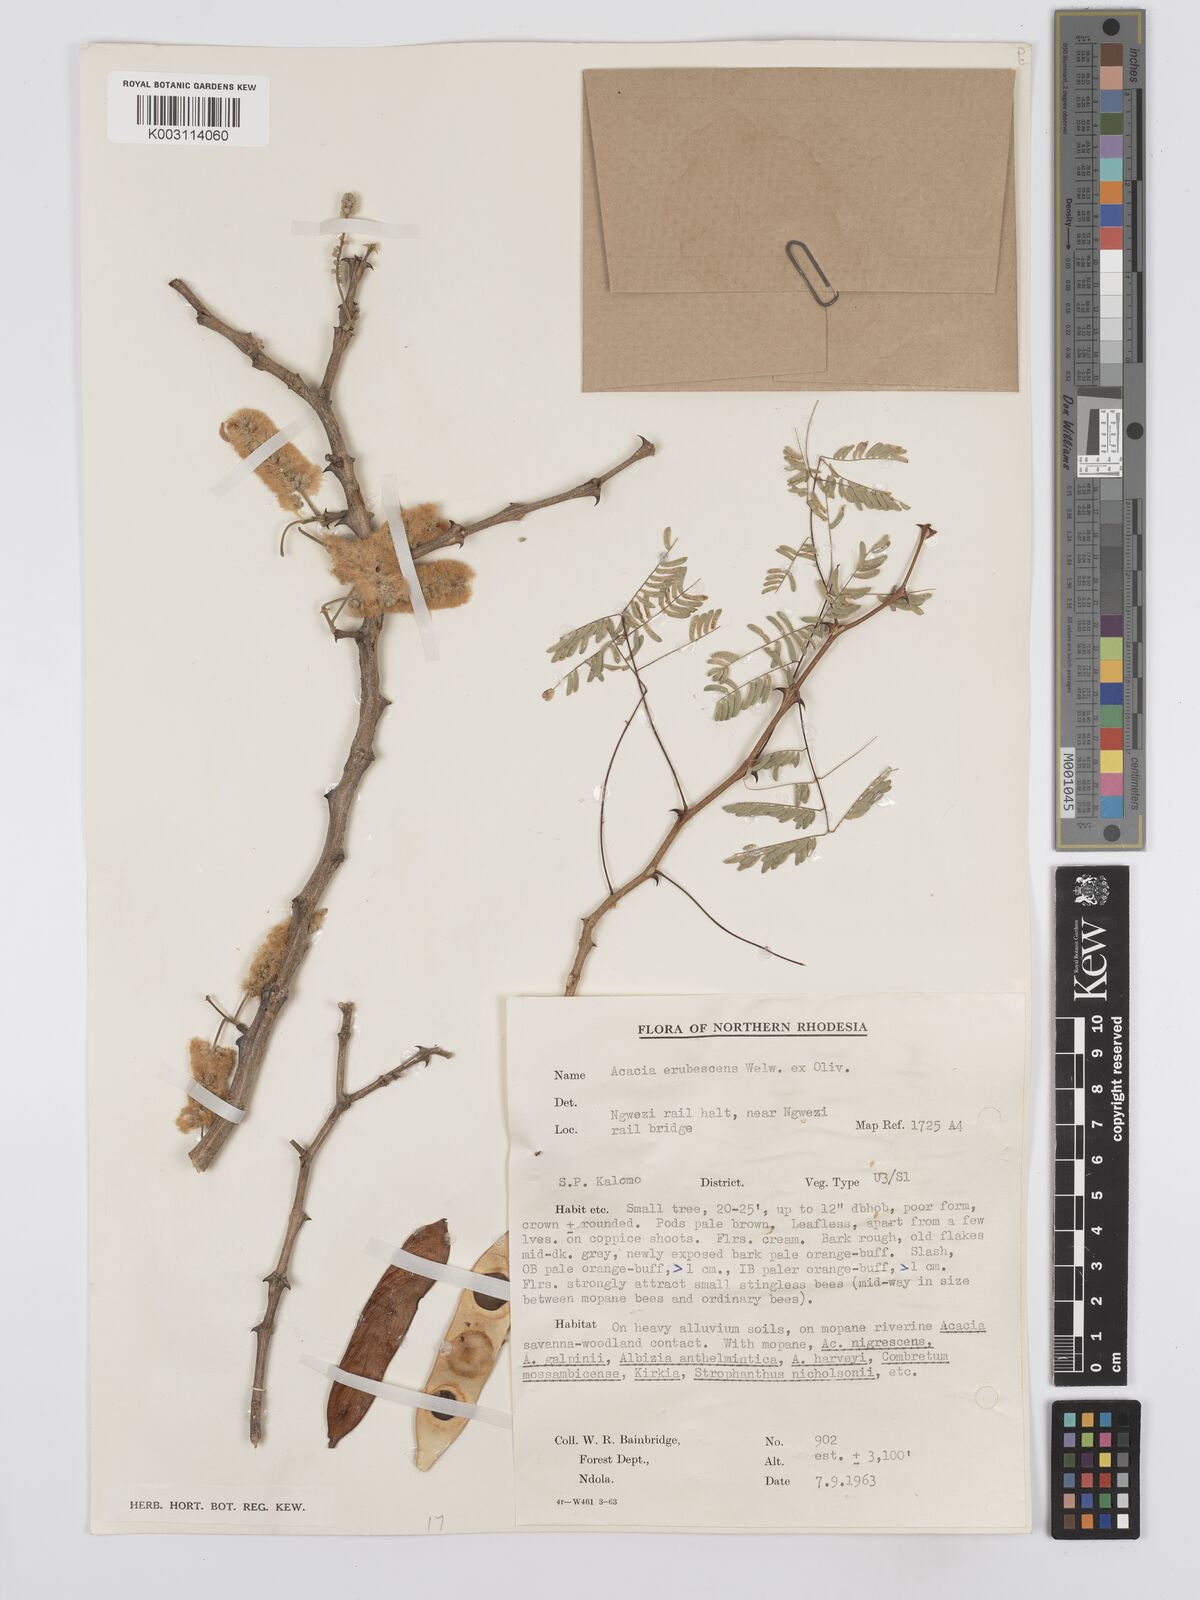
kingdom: Plantae
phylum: Tracheophyta
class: Magnoliopsida
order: Fabales
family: Fabaceae
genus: Senegalia
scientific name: Senegalia erubescens
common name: Bluethorn
